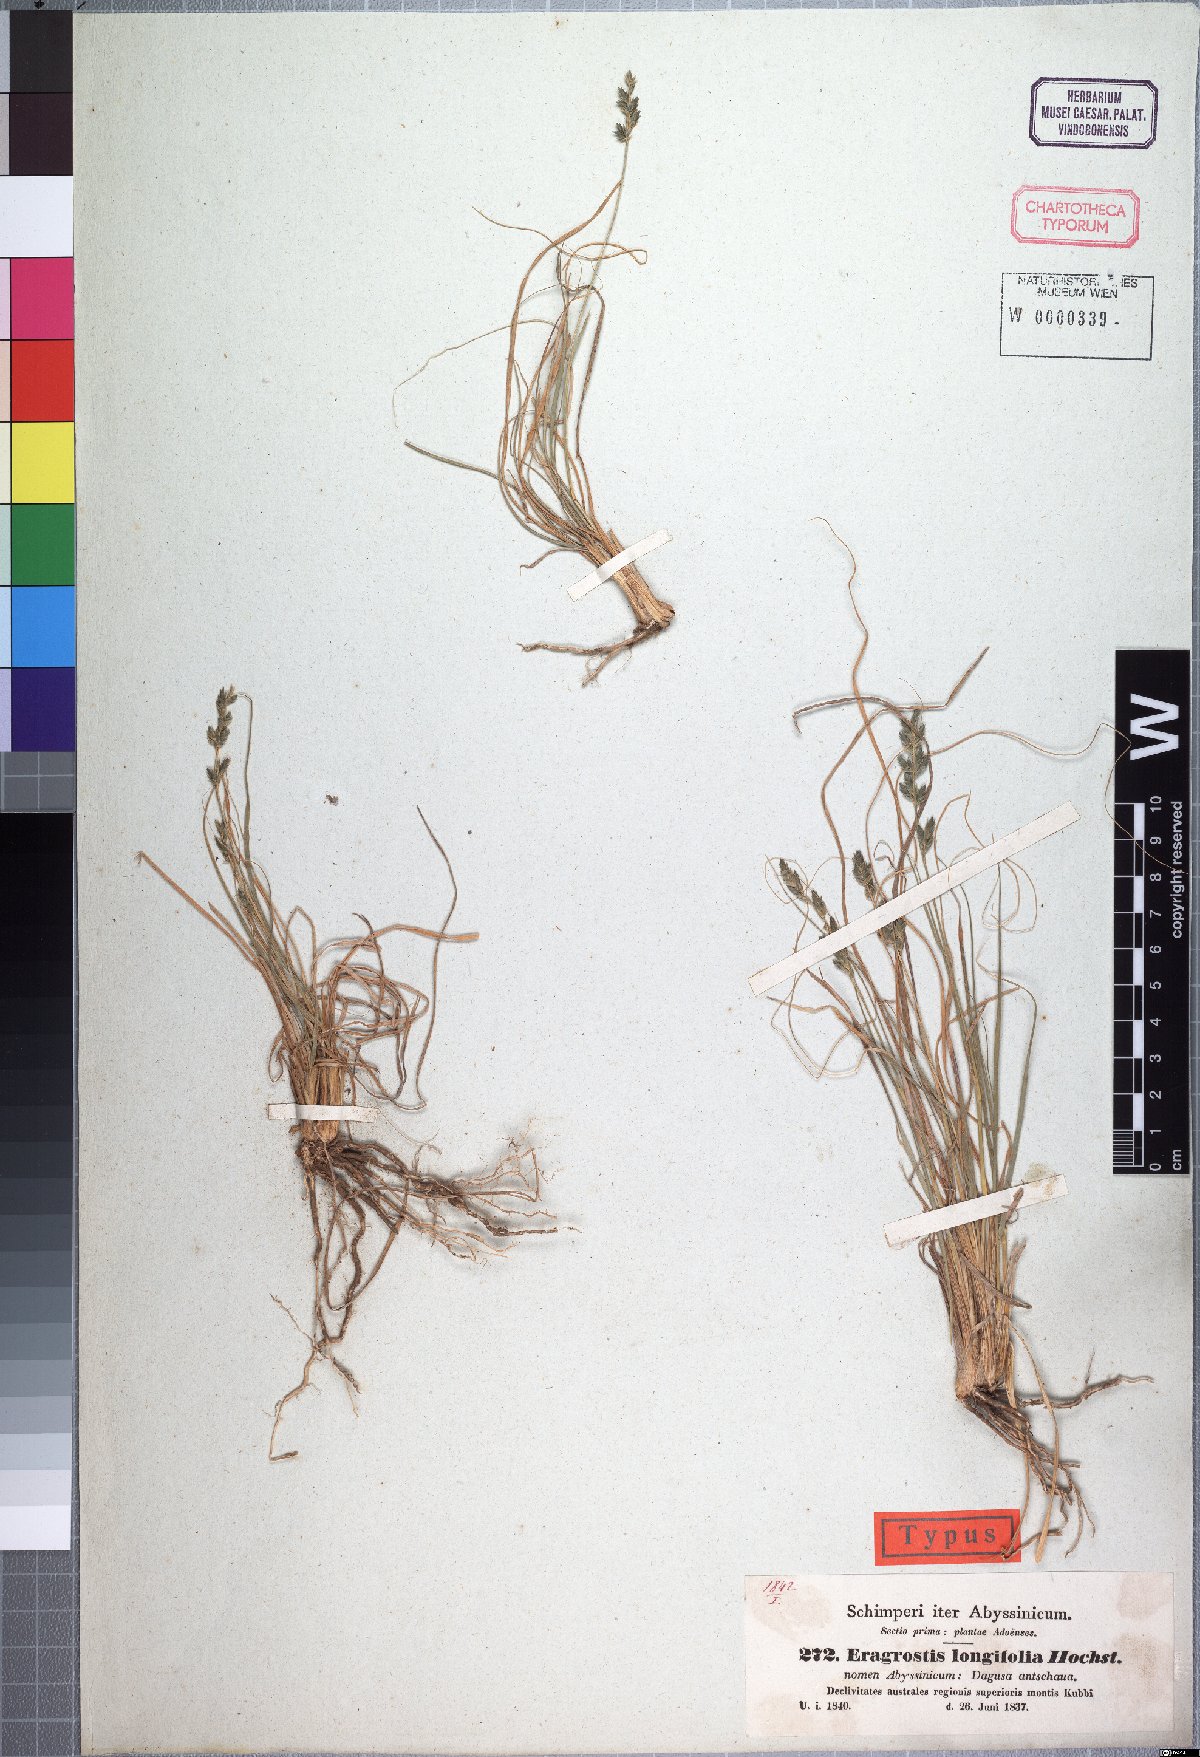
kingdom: Plantae
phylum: Tracheophyta
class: Liliopsida
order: Poales
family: Poaceae
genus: Eragrostis
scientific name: Eragrostis longifolia
